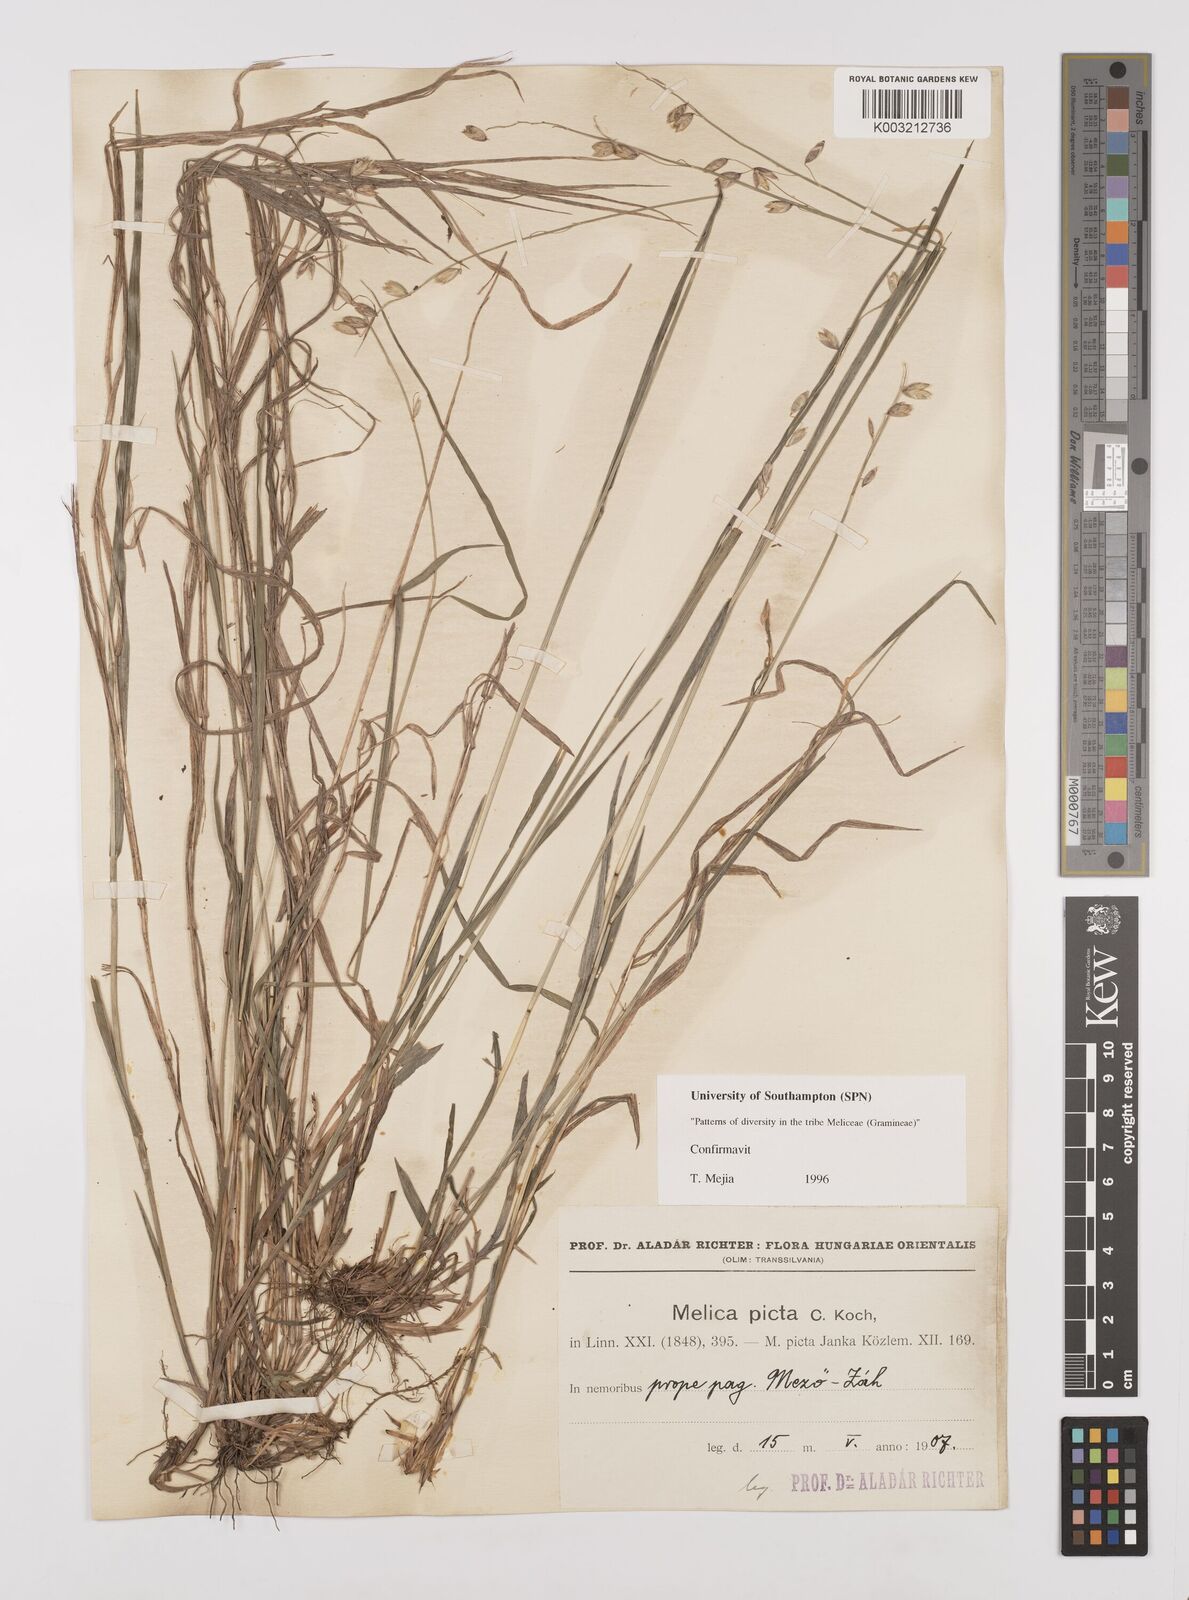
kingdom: Plantae
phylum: Tracheophyta
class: Liliopsida
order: Poales
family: Poaceae
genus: Melica
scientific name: Melica picta
